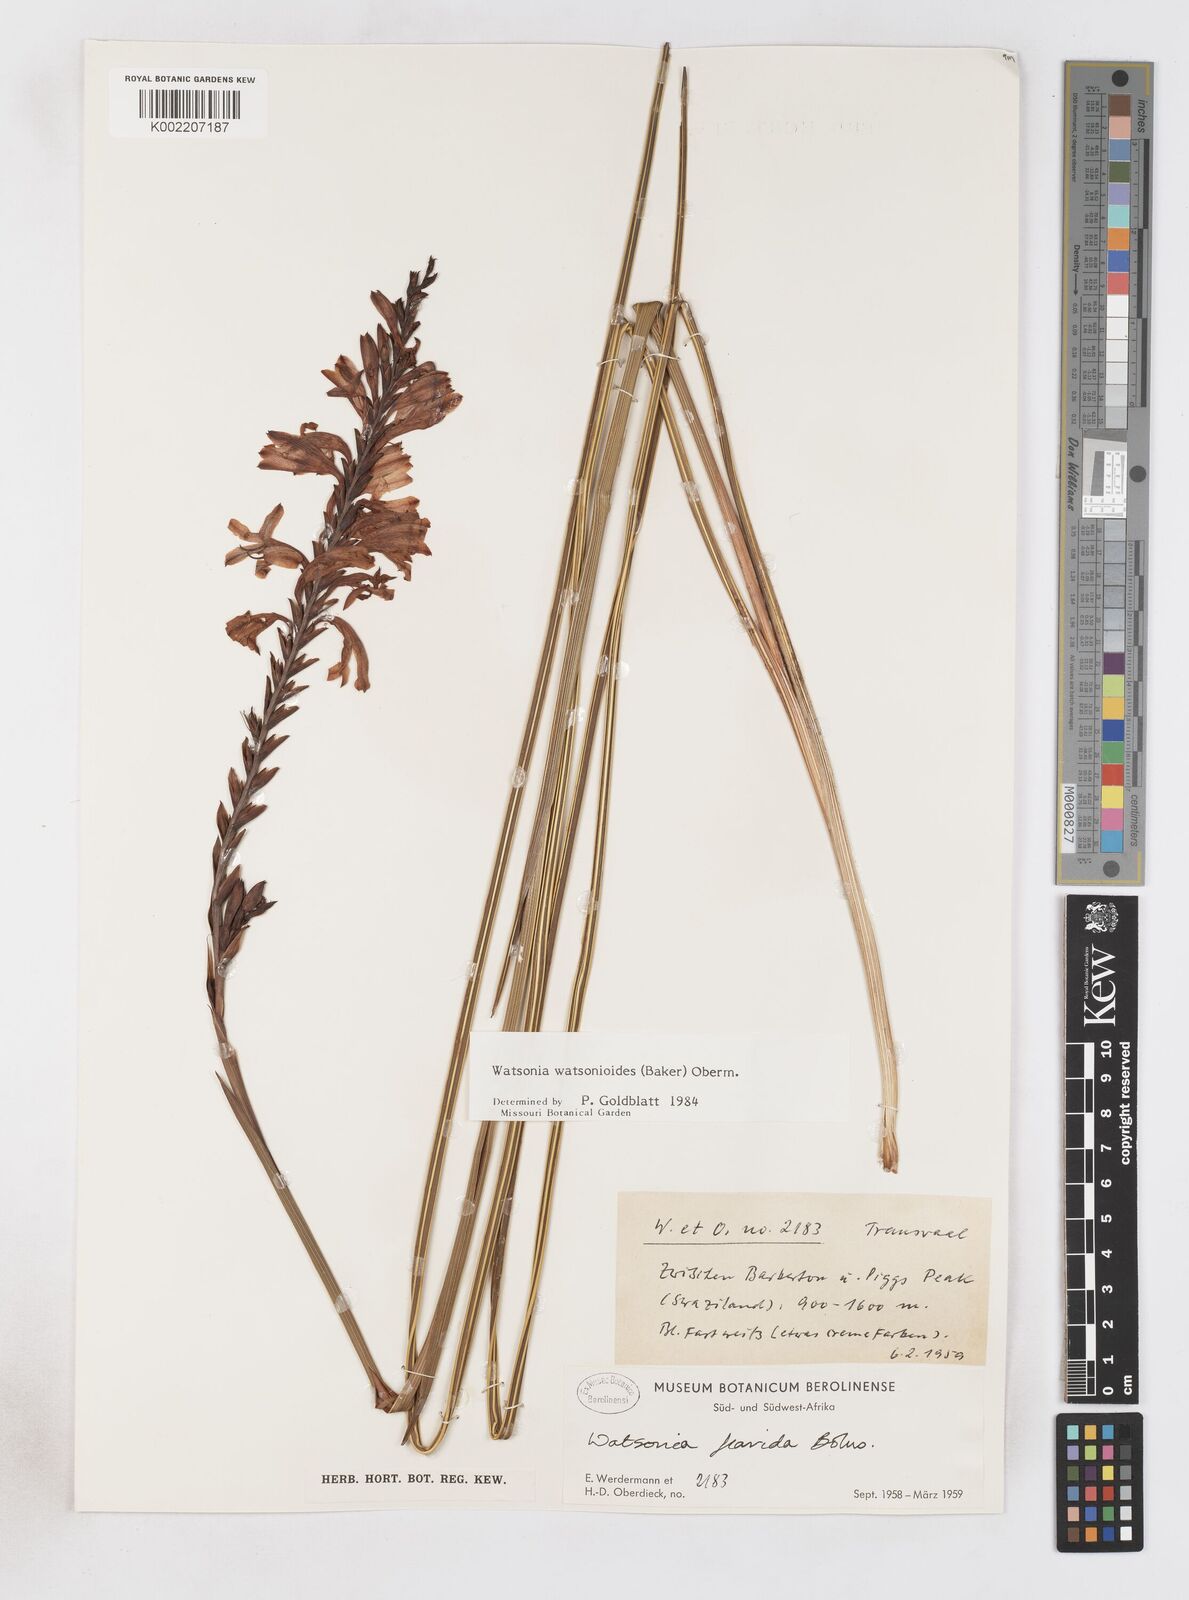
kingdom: Plantae
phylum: Tracheophyta
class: Liliopsida
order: Asparagales
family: Iridaceae
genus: Watsonia
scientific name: Watsonia watsonioides
